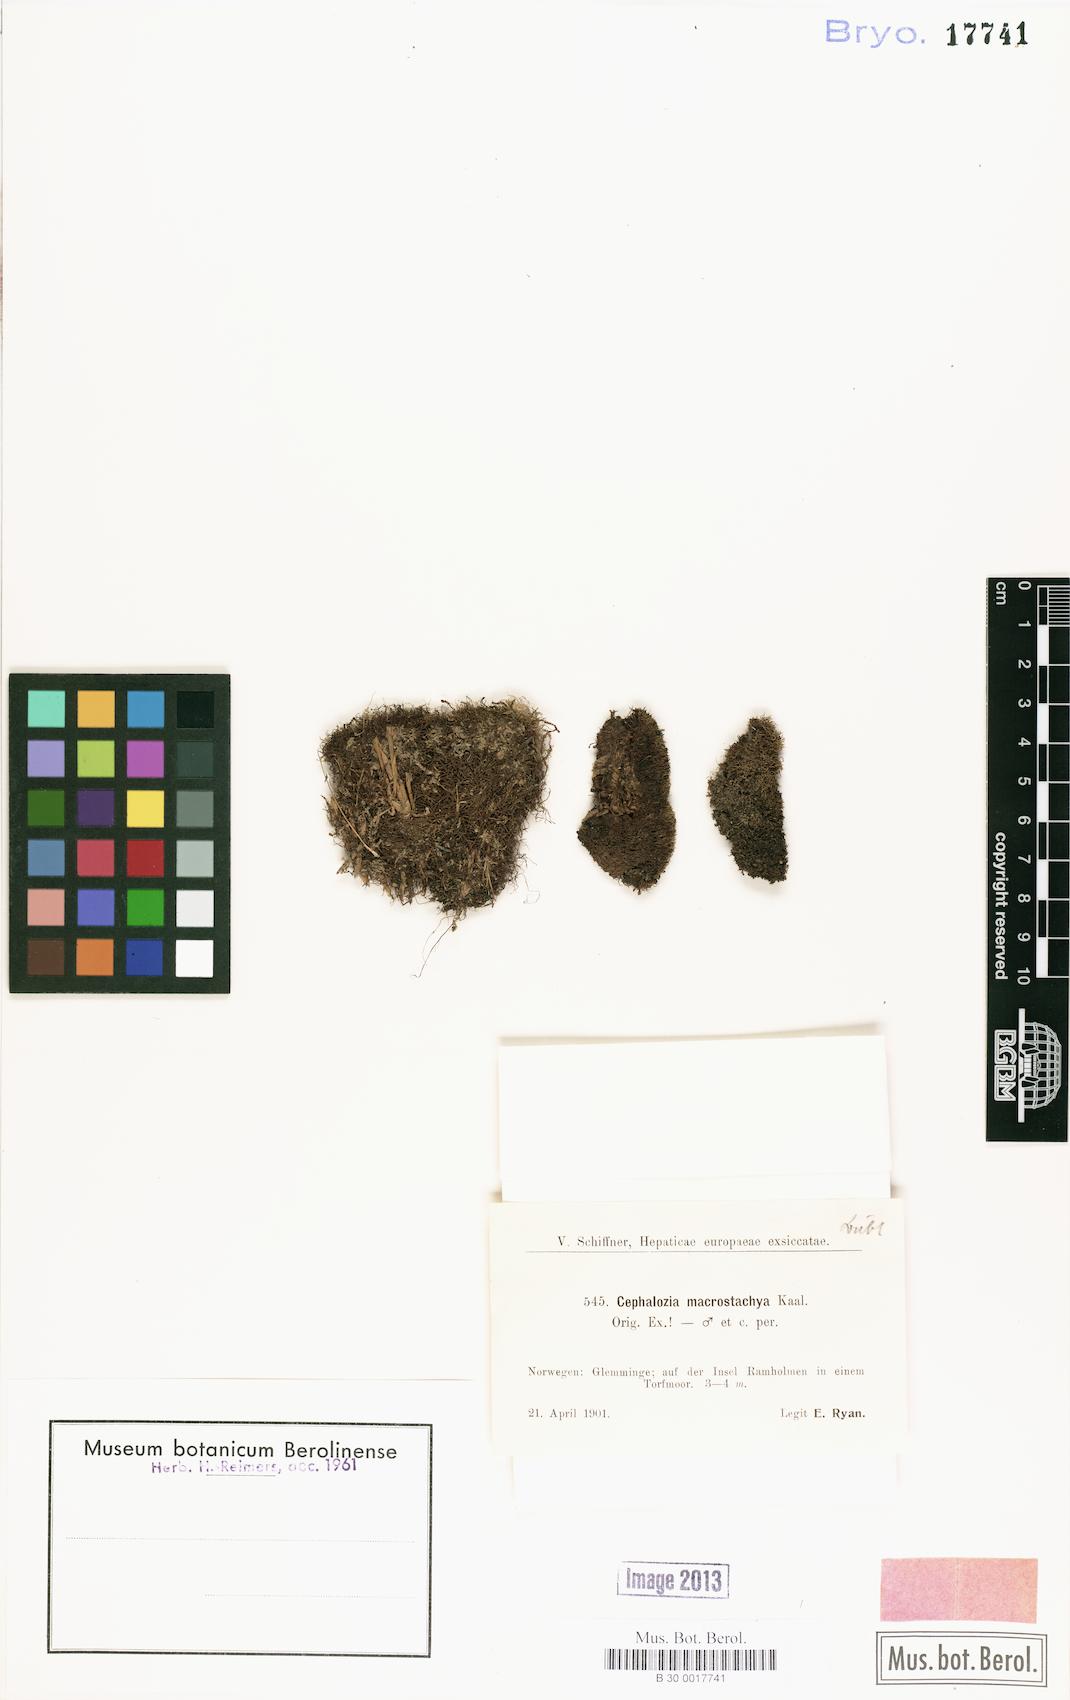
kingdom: Plantae
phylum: Marchantiophyta
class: Jungermanniopsida
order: Jungermanniales
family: Cephaloziaceae
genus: Fuscocephaloziopsis
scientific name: Fuscocephaloziopsis macrostachya
